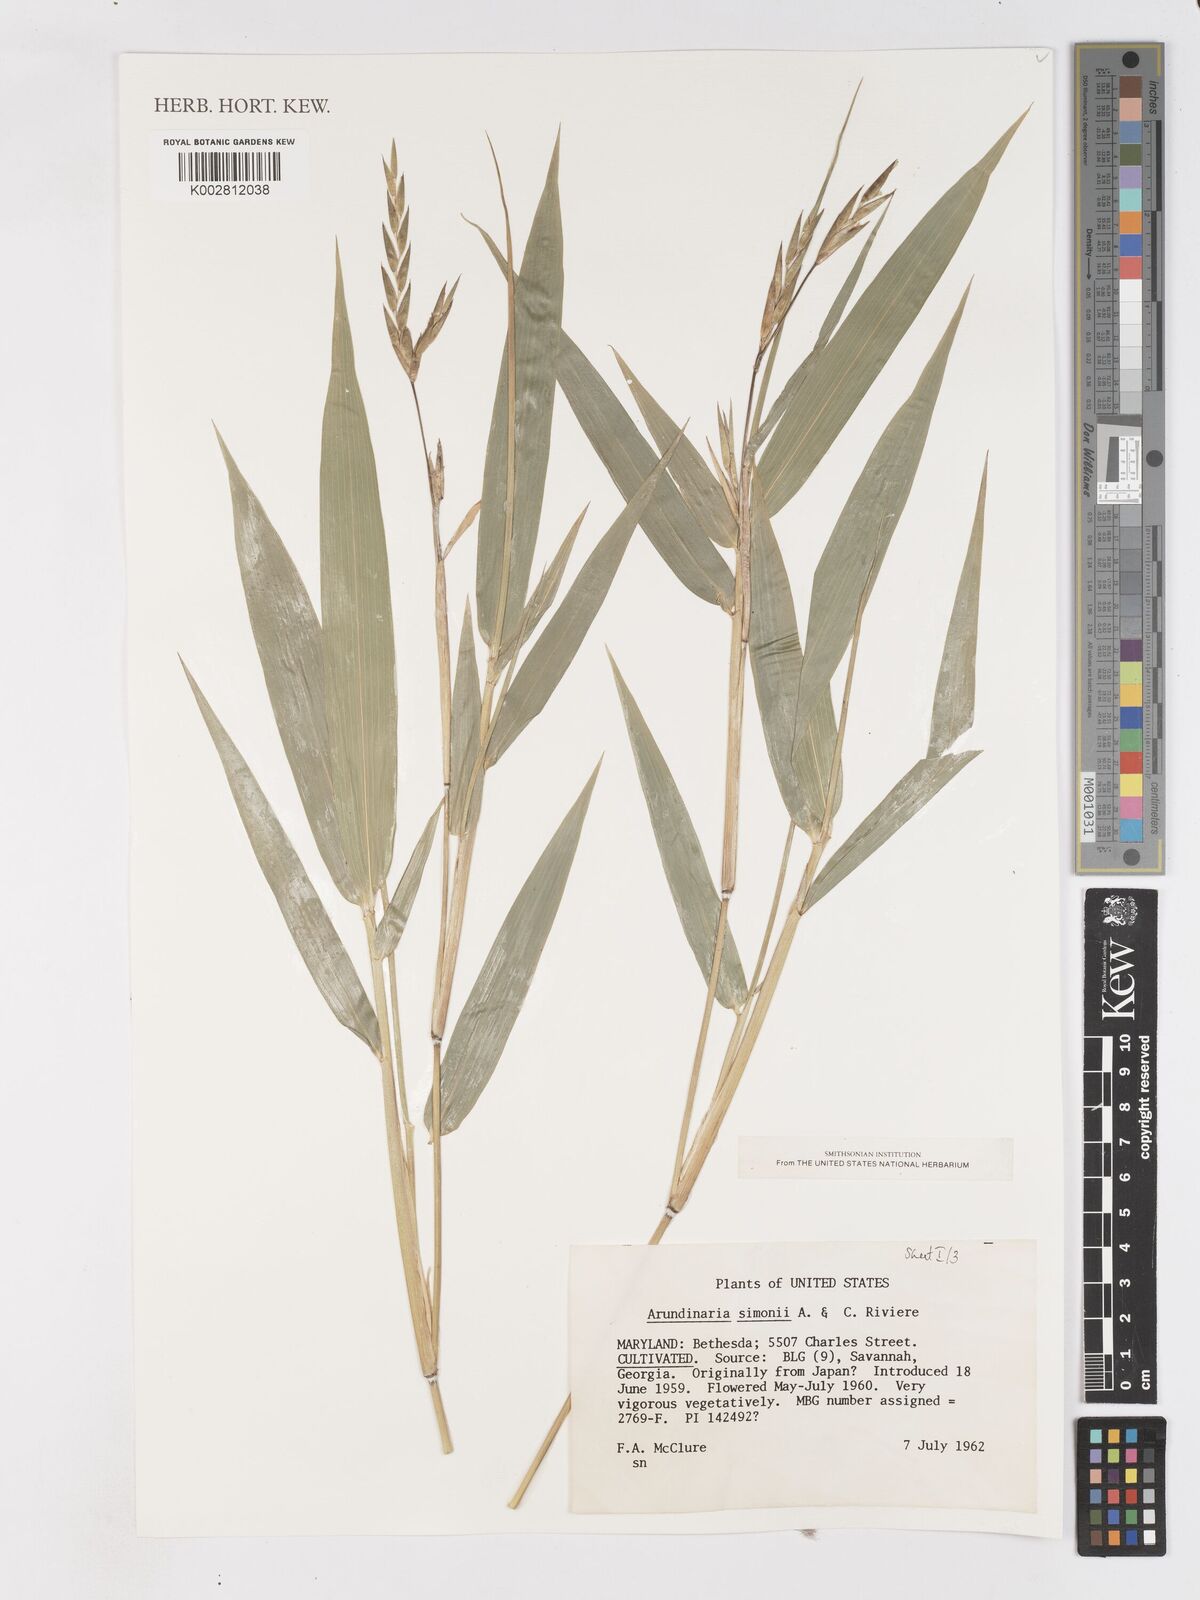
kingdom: Plantae
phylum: Tracheophyta
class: Liliopsida
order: Poales
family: Poaceae
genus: Pleioblastus
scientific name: Pleioblastus simonii
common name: Simon bamboo
